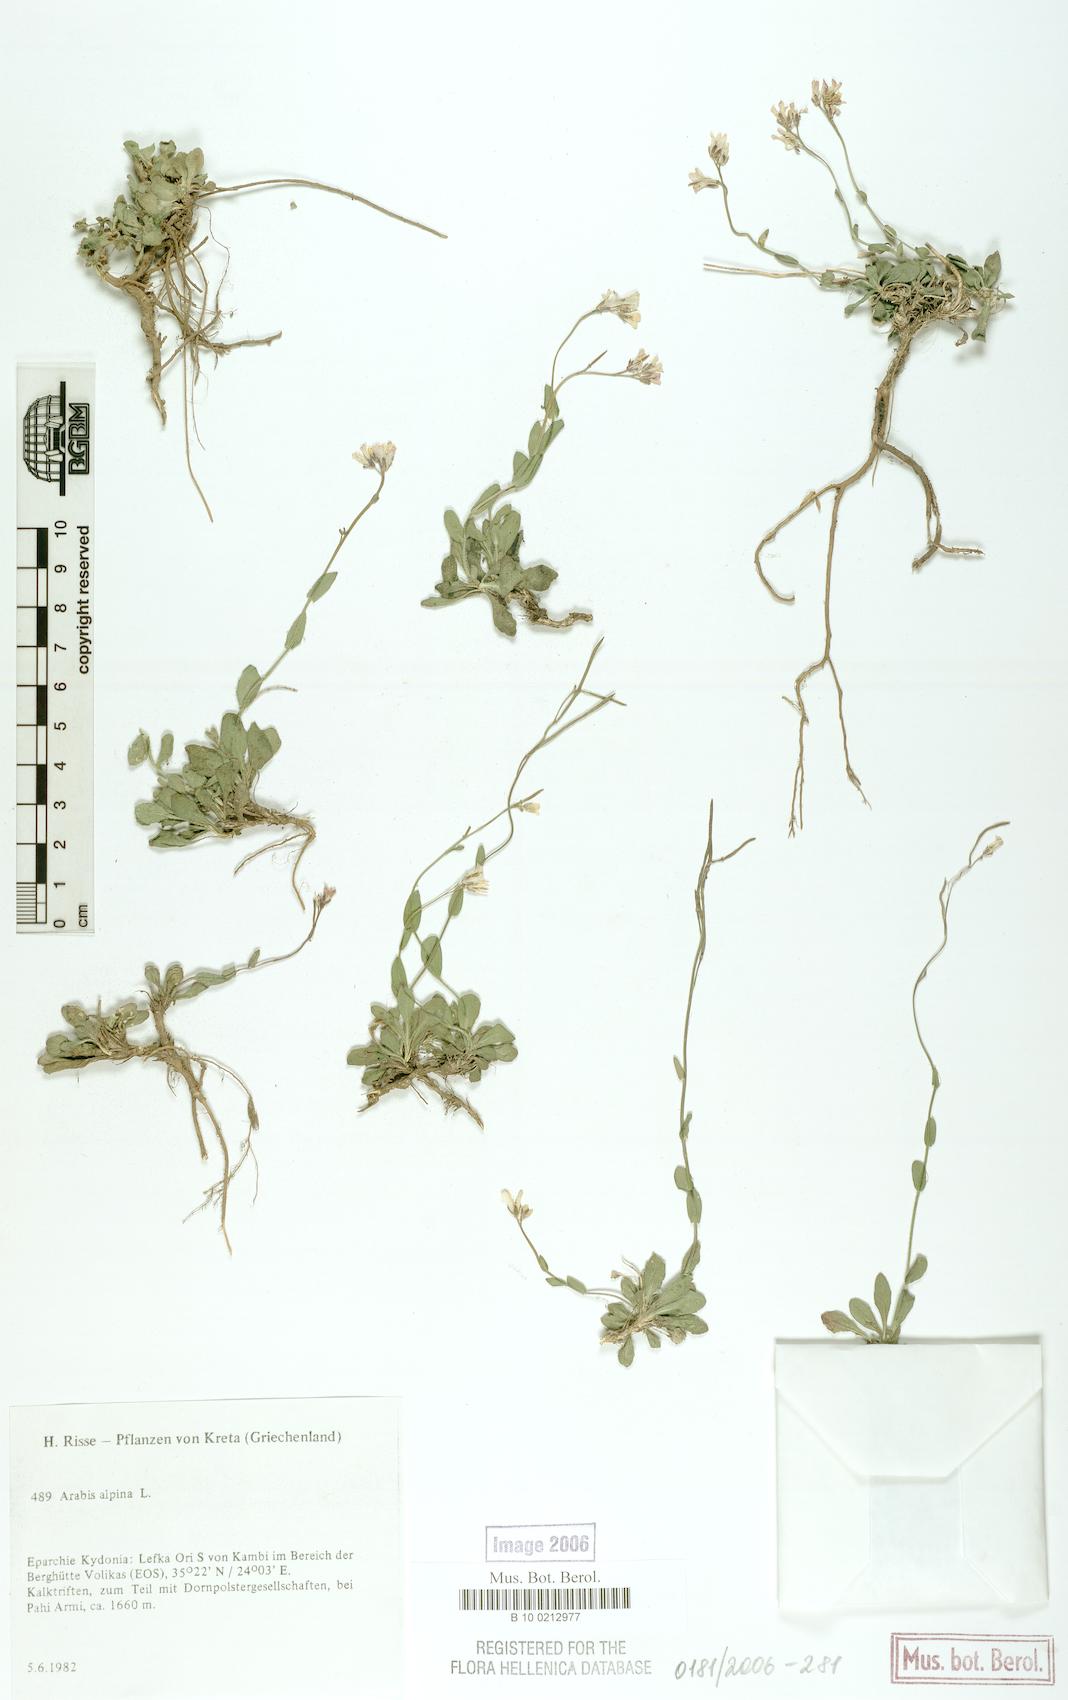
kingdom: Plantae
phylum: Tracheophyta
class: Magnoliopsida
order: Brassicales
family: Brassicaceae
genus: Arabis
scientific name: Arabis alpina
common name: Alpine rock-cress
